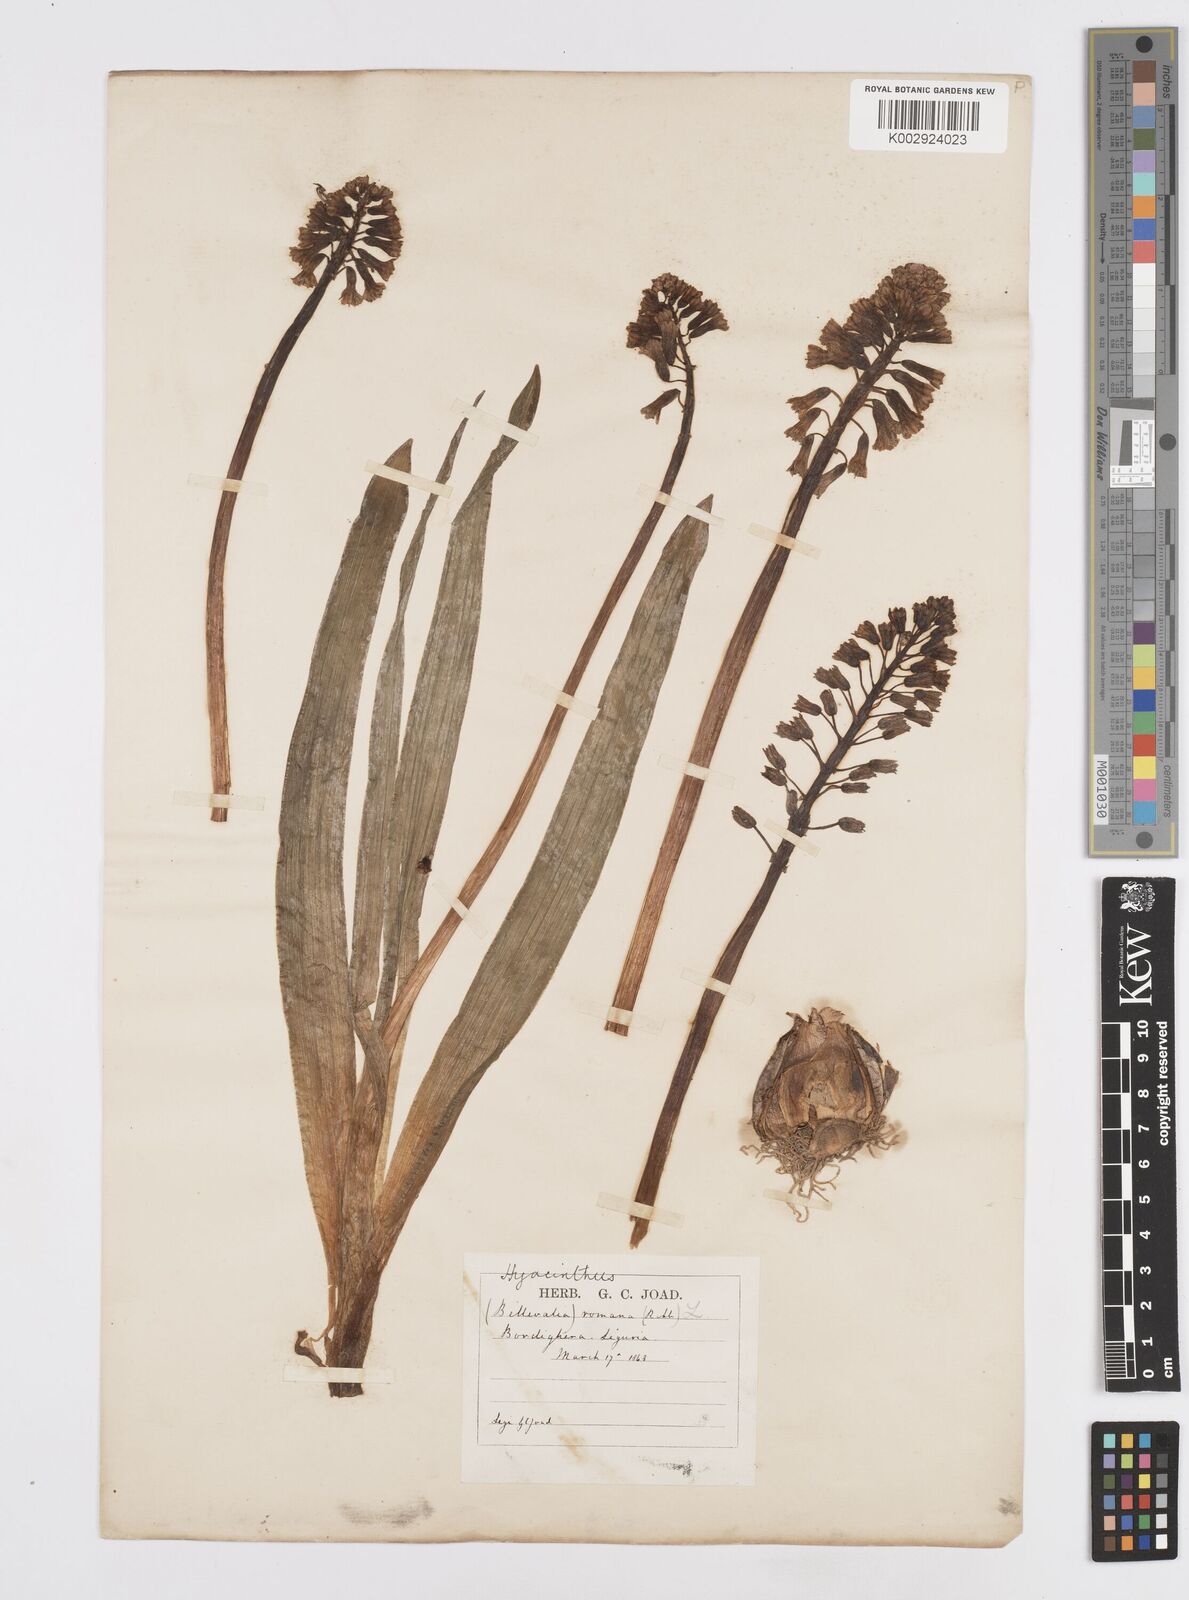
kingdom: Plantae
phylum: Tracheophyta
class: Liliopsida
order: Asparagales
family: Asparagaceae
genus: Bellevalia
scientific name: Bellevalia trifoliata
